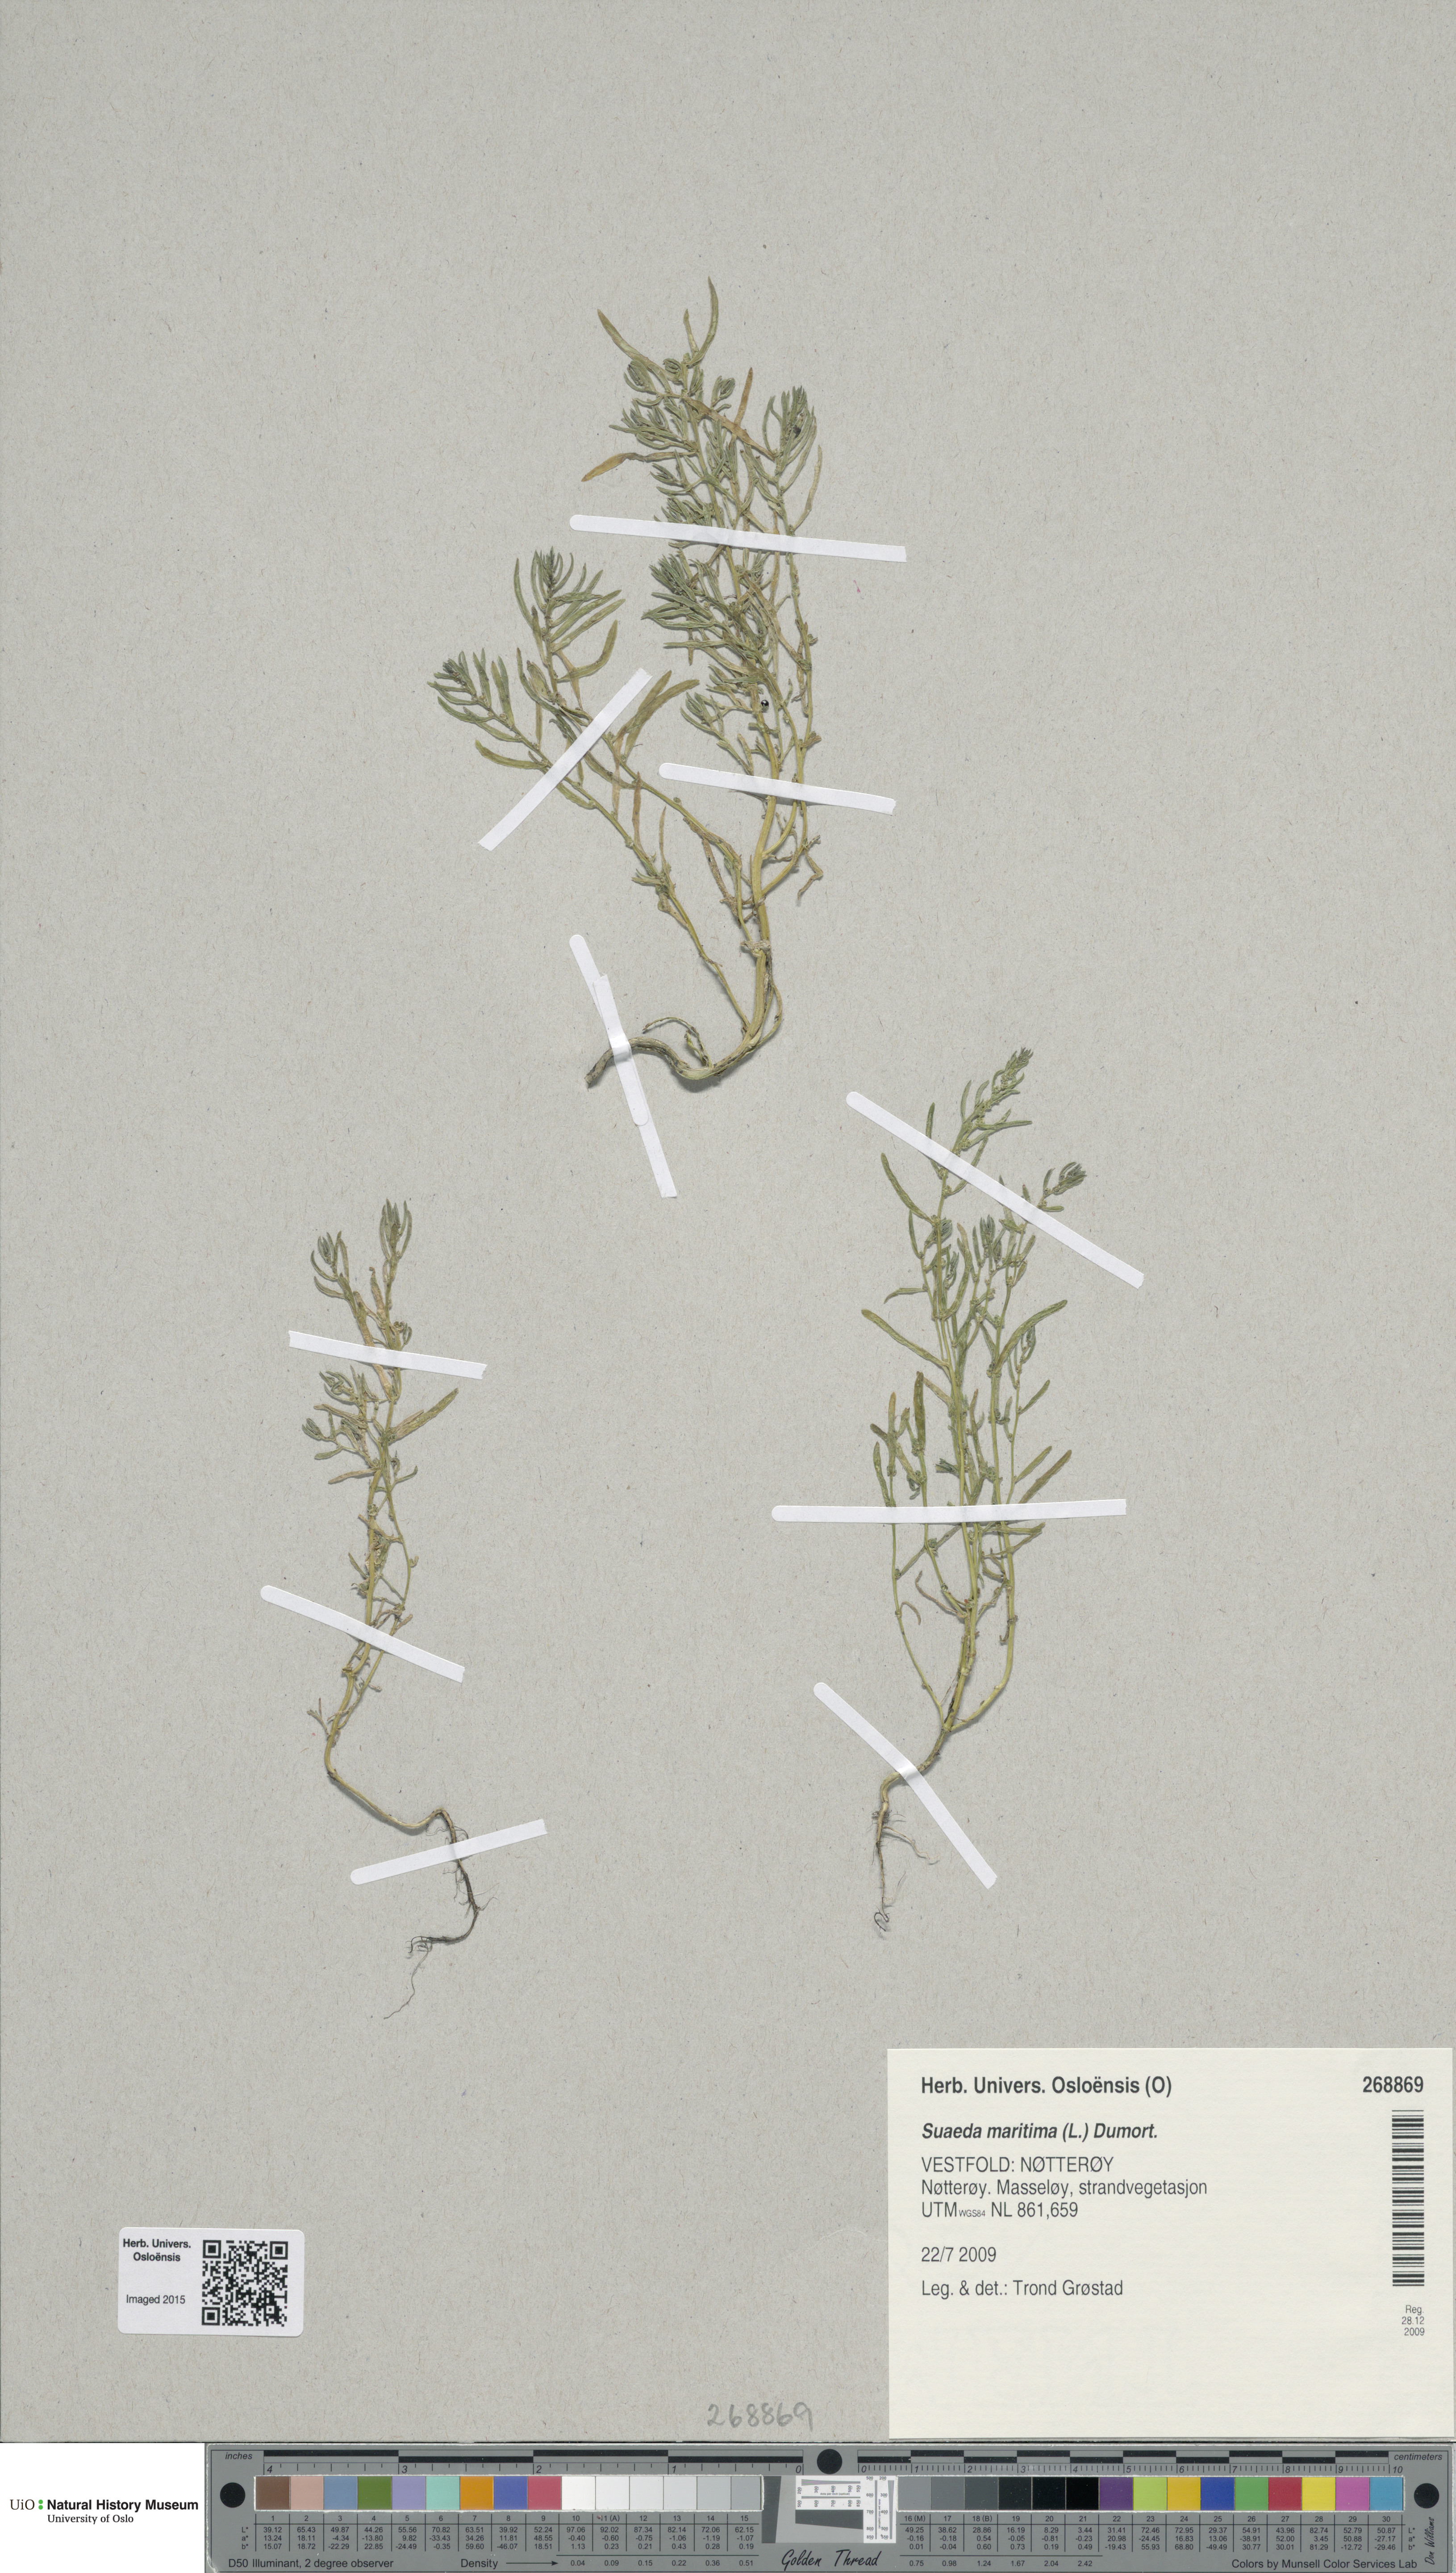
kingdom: Plantae
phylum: Tracheophyta
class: Magnoliopsida
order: Caryophyllales
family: Amaranthaceae
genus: Suaeda
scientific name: Suaeda maritima
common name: Annual sea-blite
